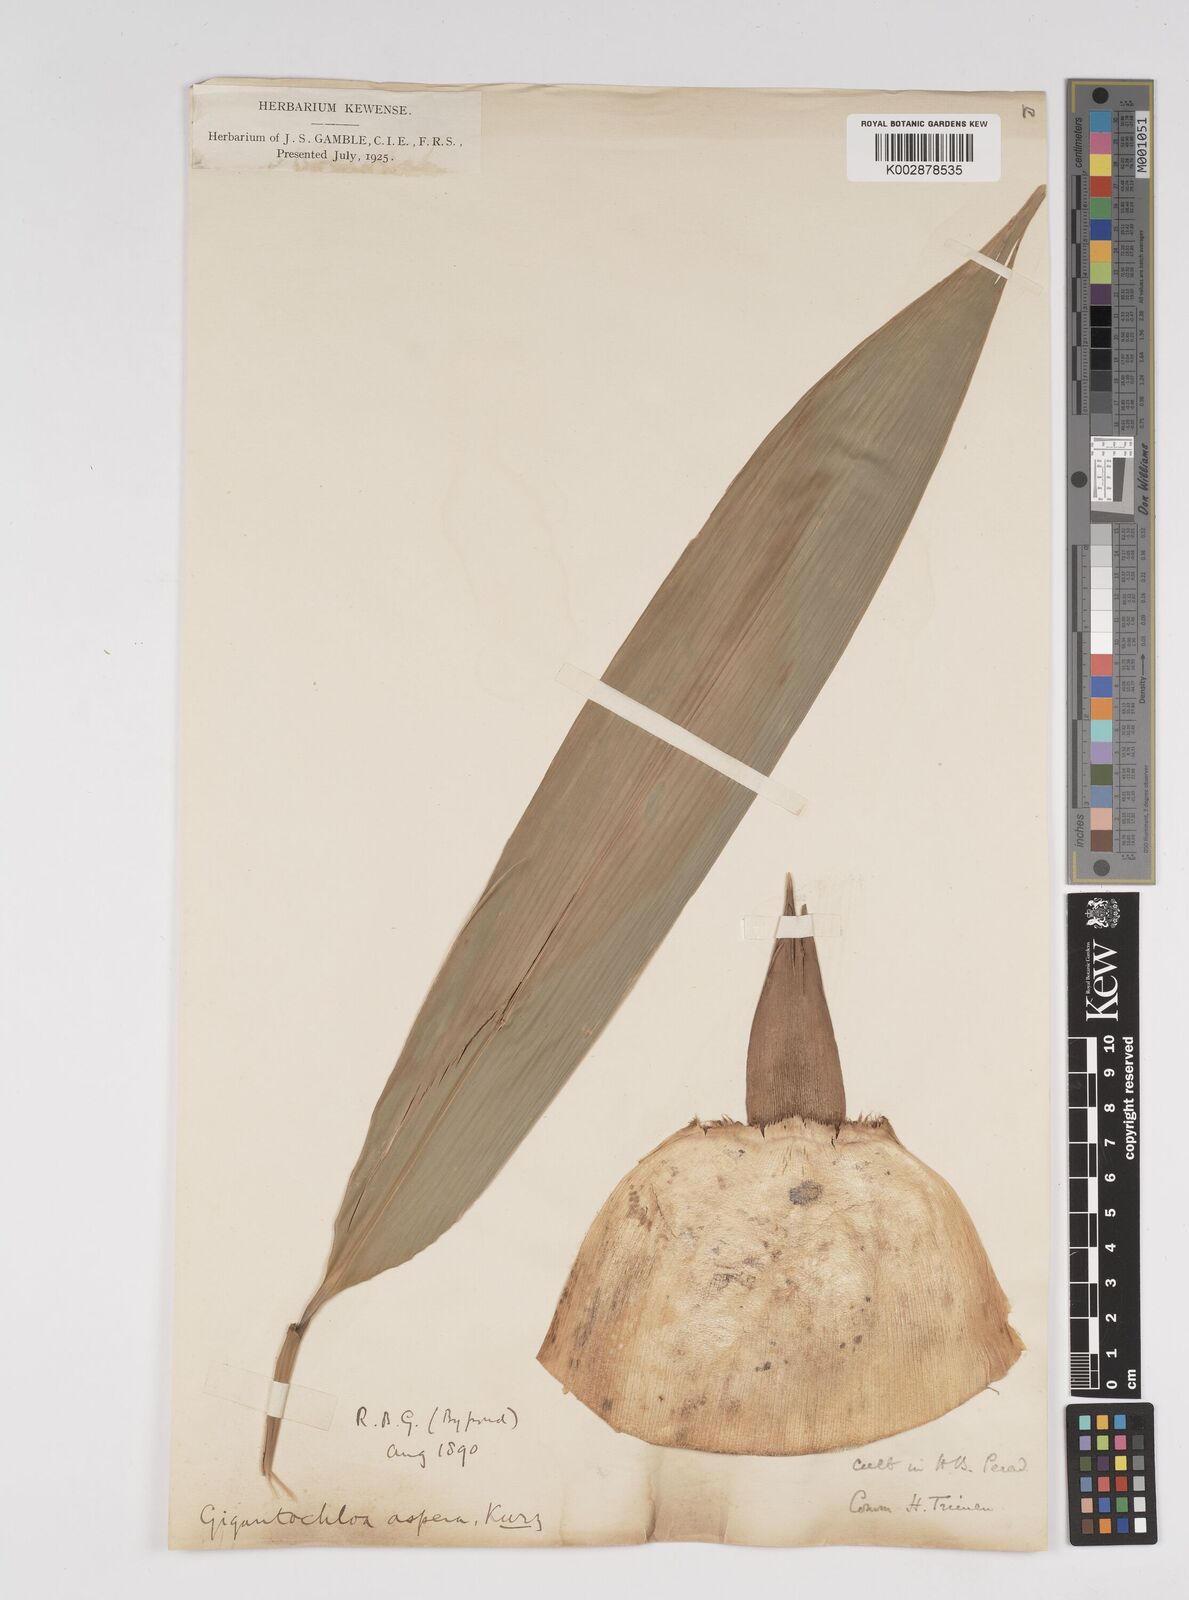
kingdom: Plantae
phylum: Tracheophyta
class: Liliopsida
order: Poales
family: Poaceae
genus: Dendrocalamus
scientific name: Dendrocalamus asper
